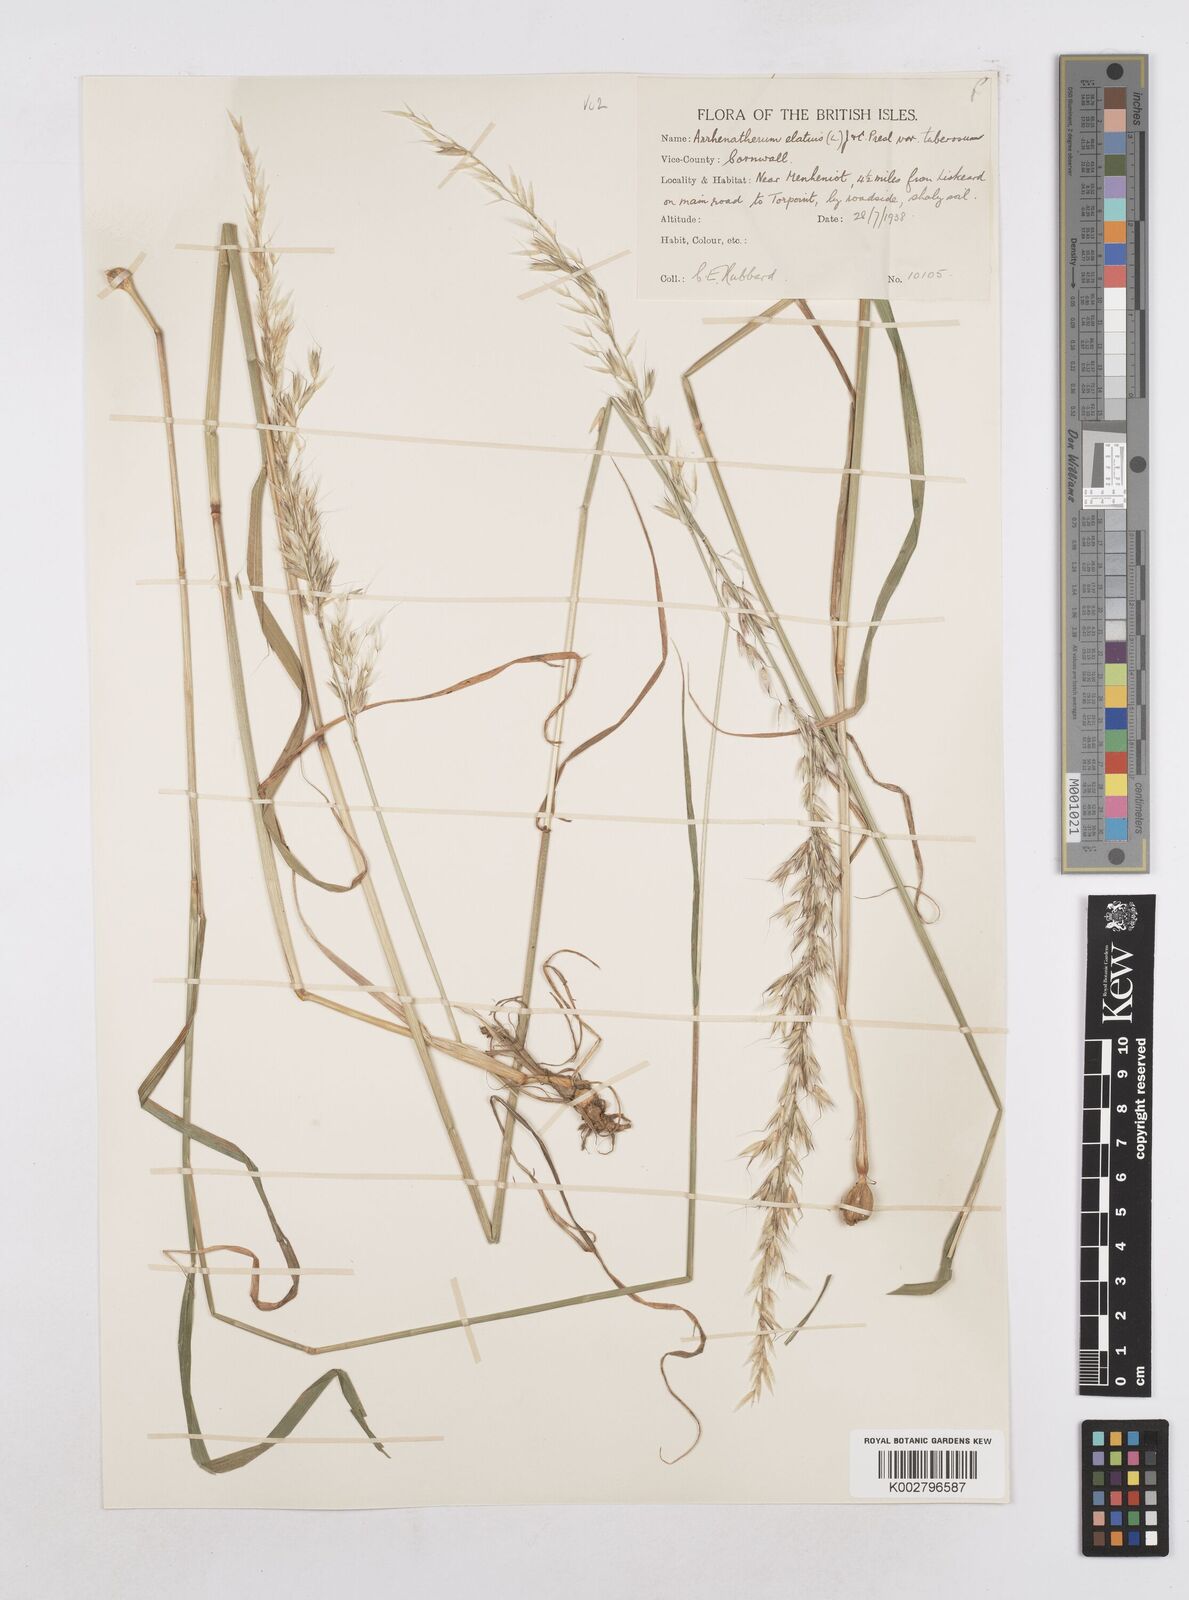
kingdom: Plantae
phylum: Tracheophyta
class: Liliopsida
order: Poales
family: Poaceae
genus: Arrhenatherum
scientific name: Arrhenatherum elatius
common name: Tall oatgrass
